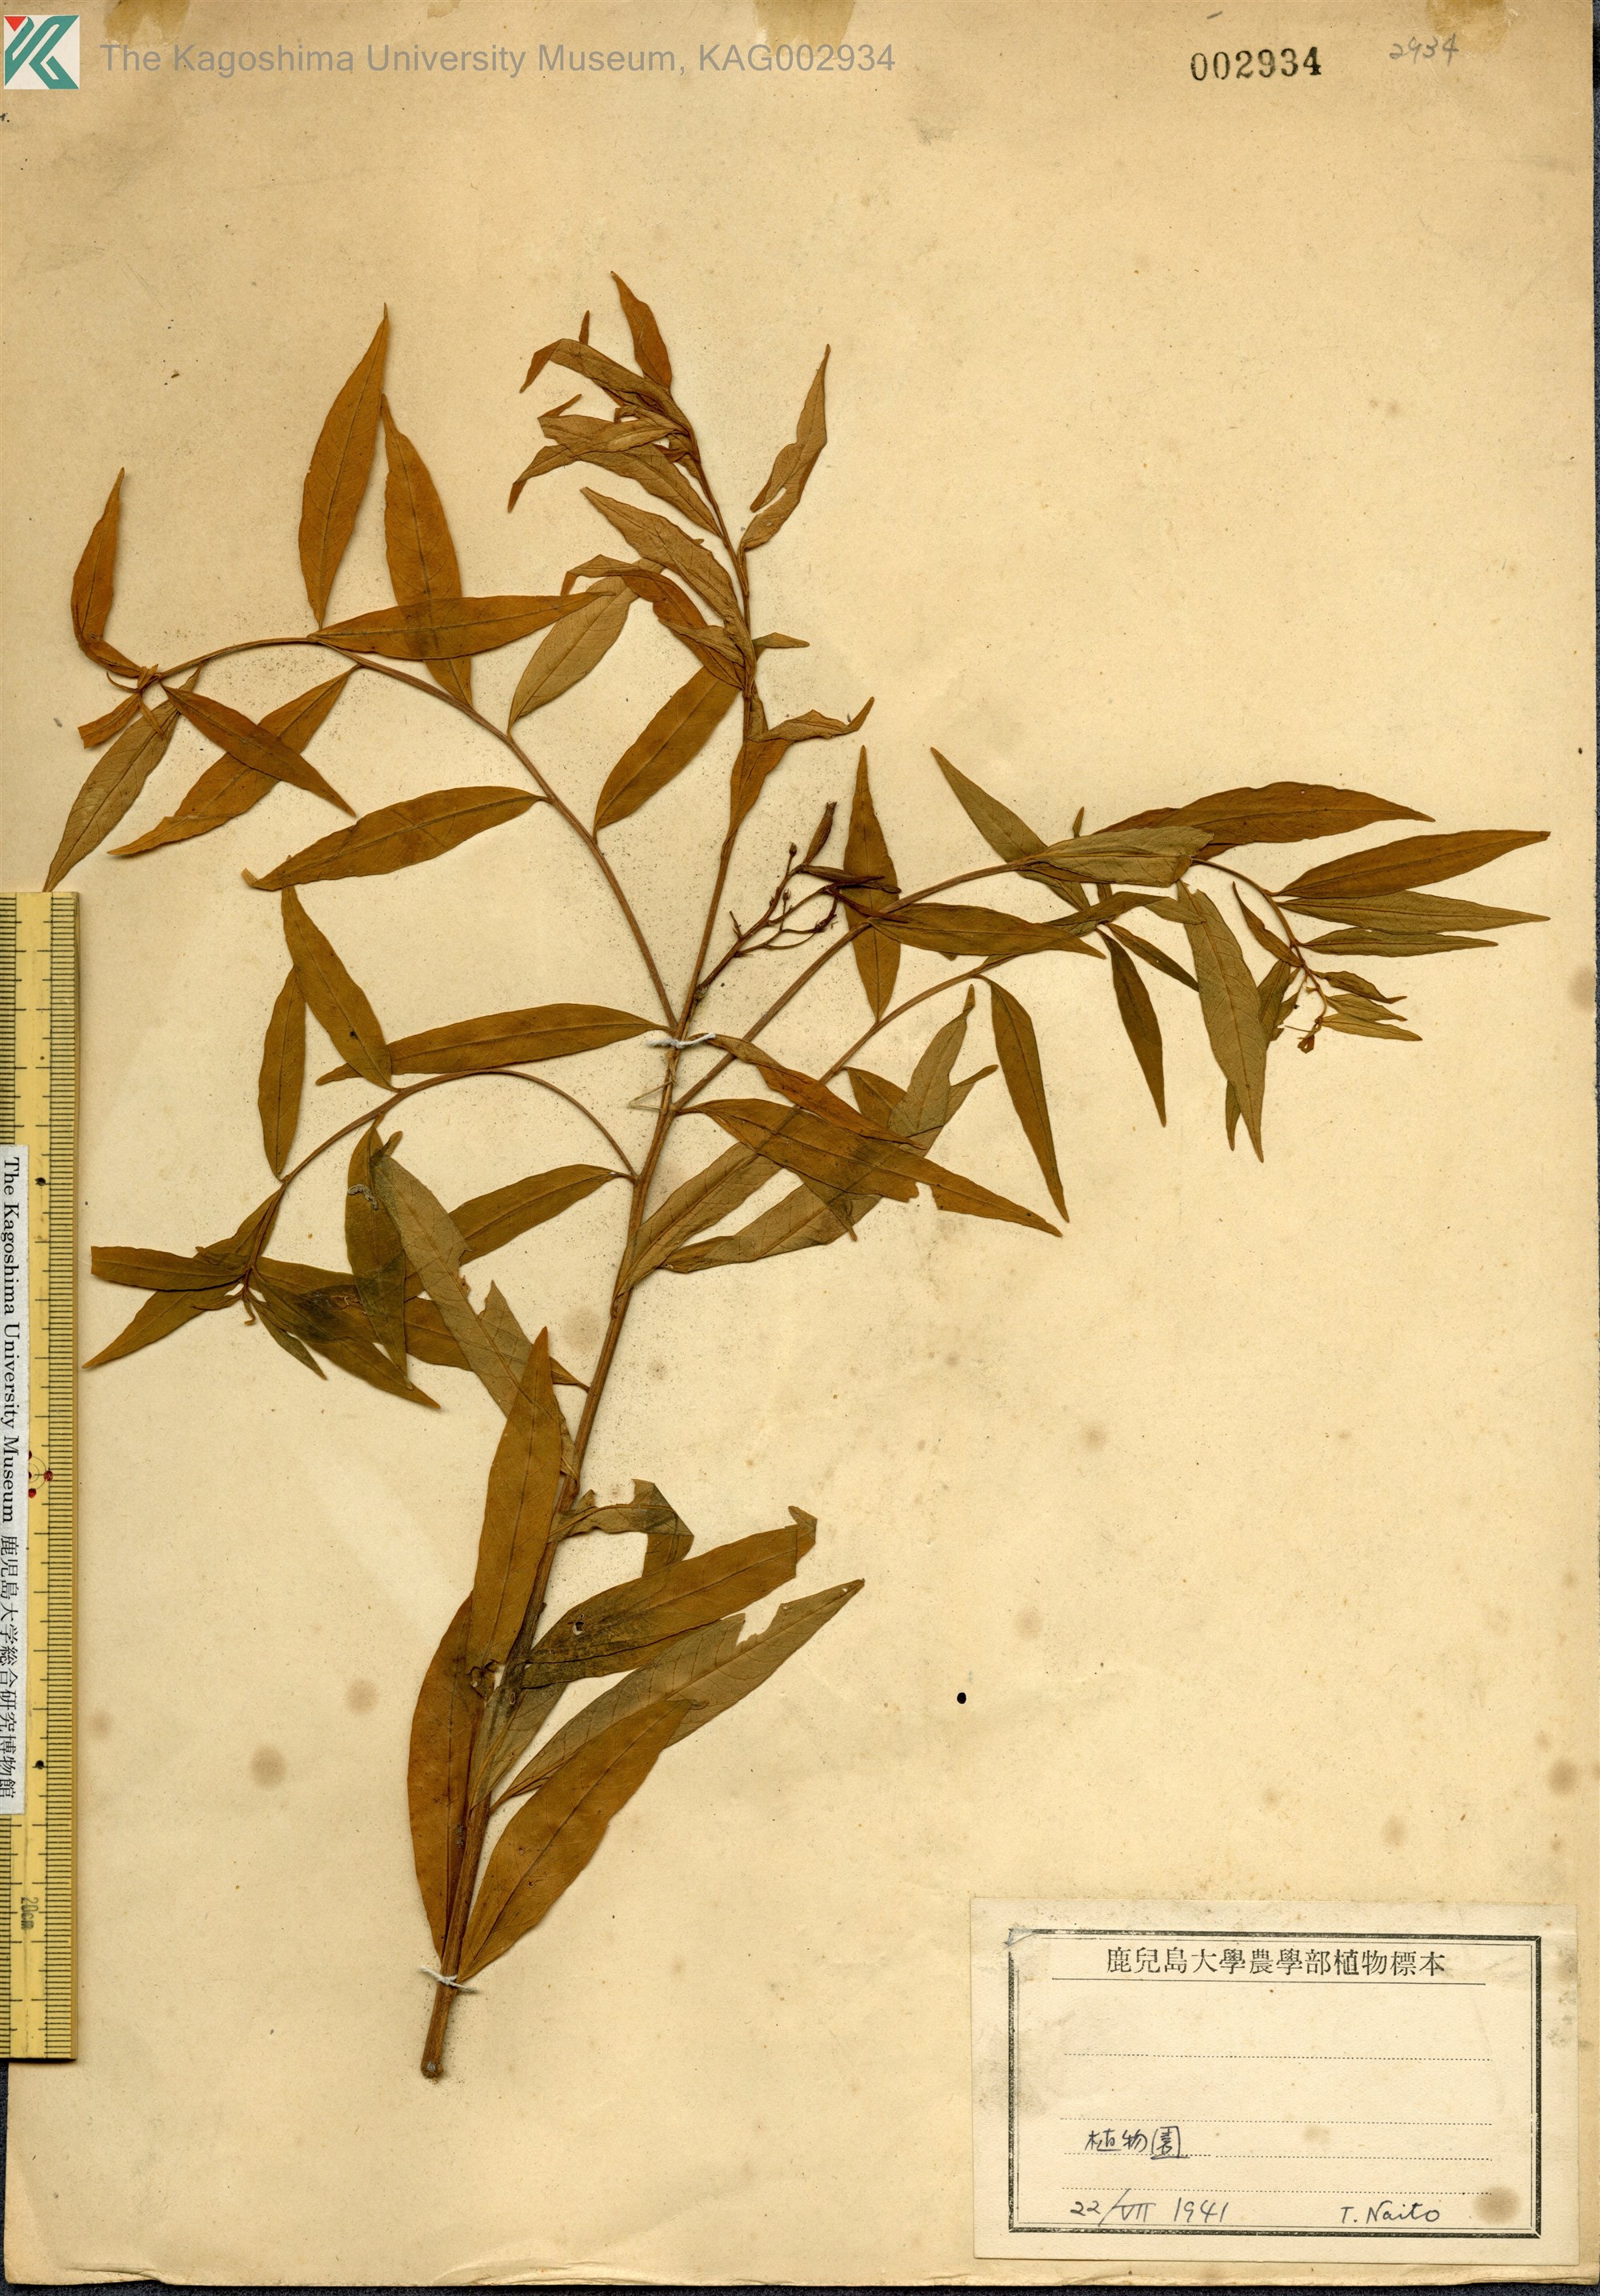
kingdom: Plantae
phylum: Tracheophyta
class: Magnoliopsida
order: Gentianales
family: Apocynaceae
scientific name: Apocynaceae
